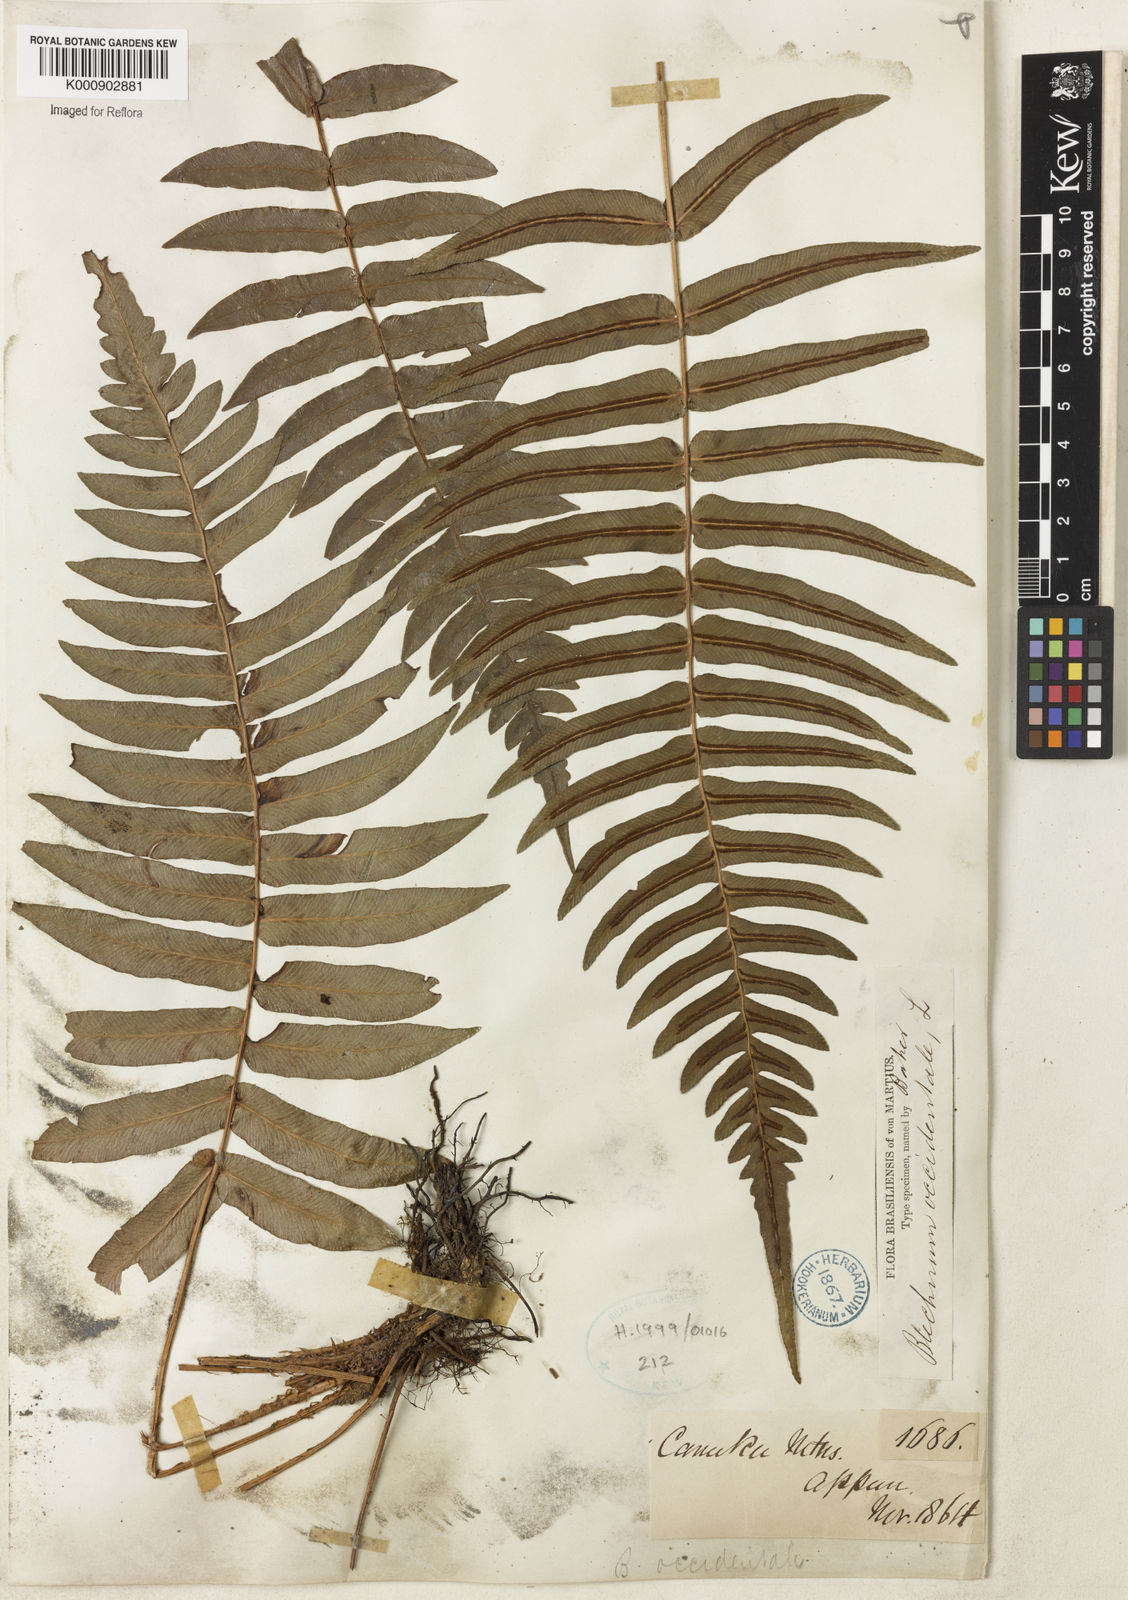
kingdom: Plantae
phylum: Tracheophyta
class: Polypodiopsida
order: Polypodiales
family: Blechnaceae
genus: Blechnum
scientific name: Blechnum occidentale
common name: Hammock fern
